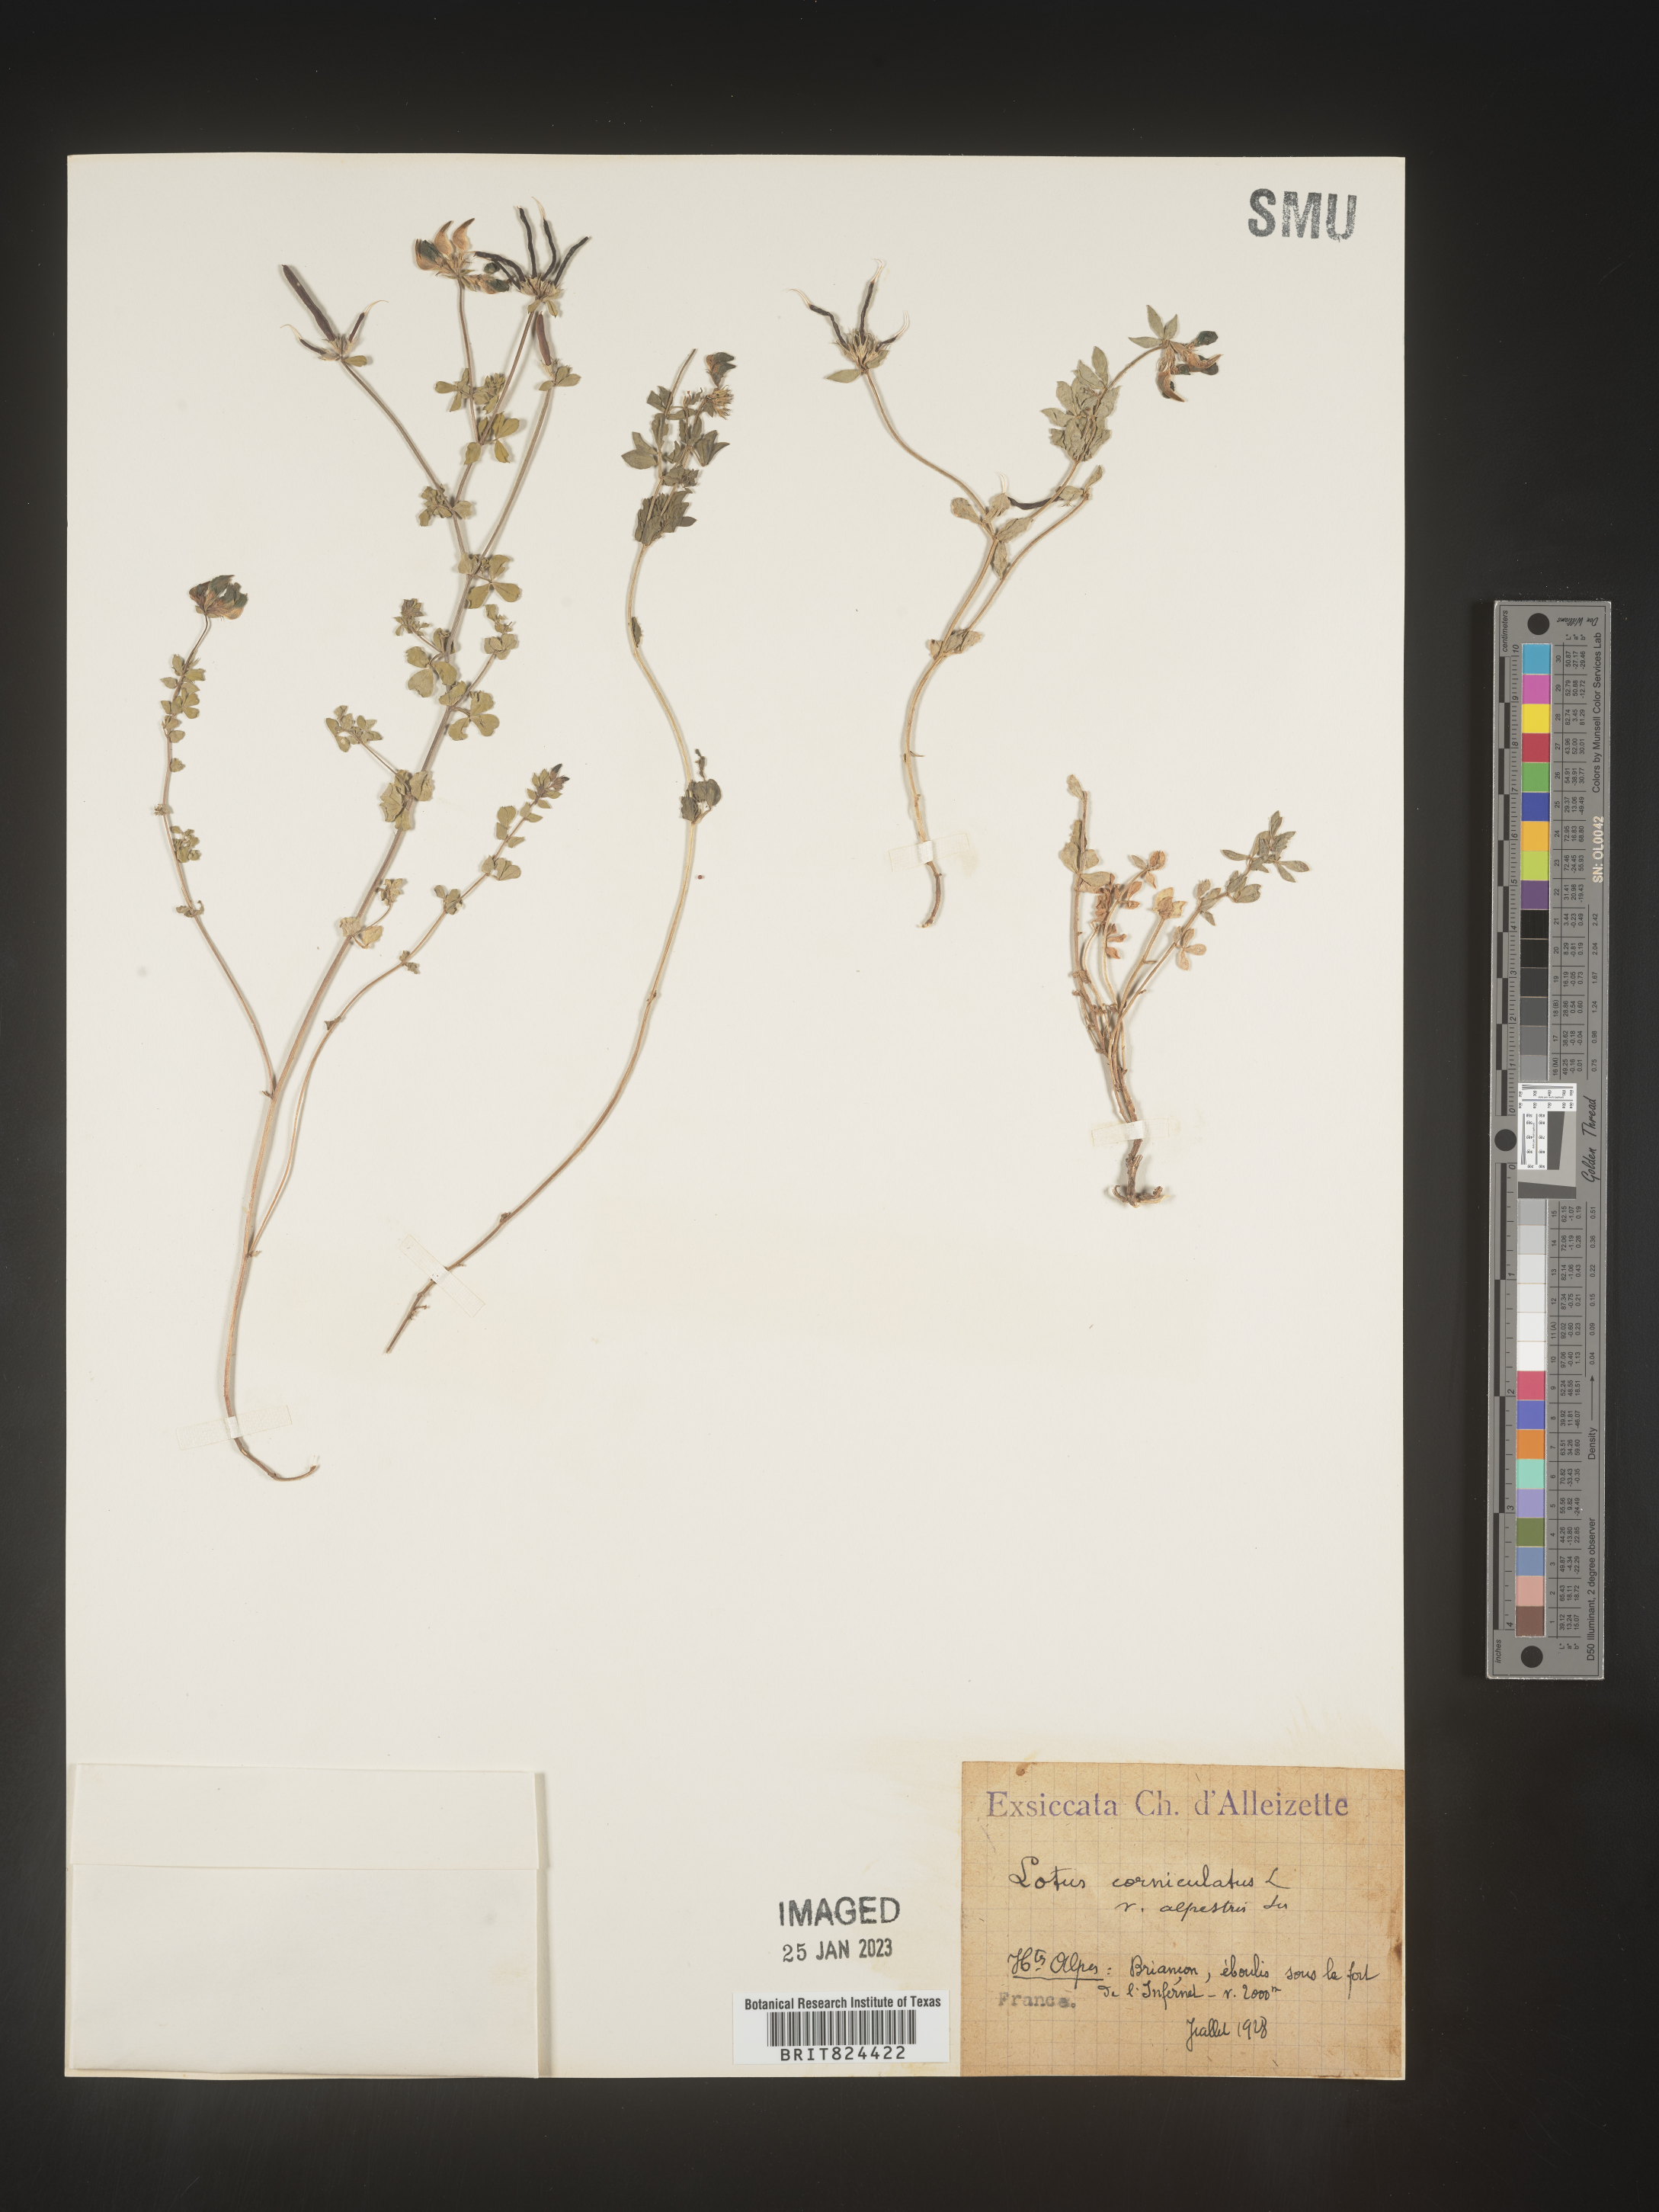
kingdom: Plantae
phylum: Tracheophyta
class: Magnoliopsida
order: Fabales
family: Fabaceae
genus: Lotus
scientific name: Lotus
